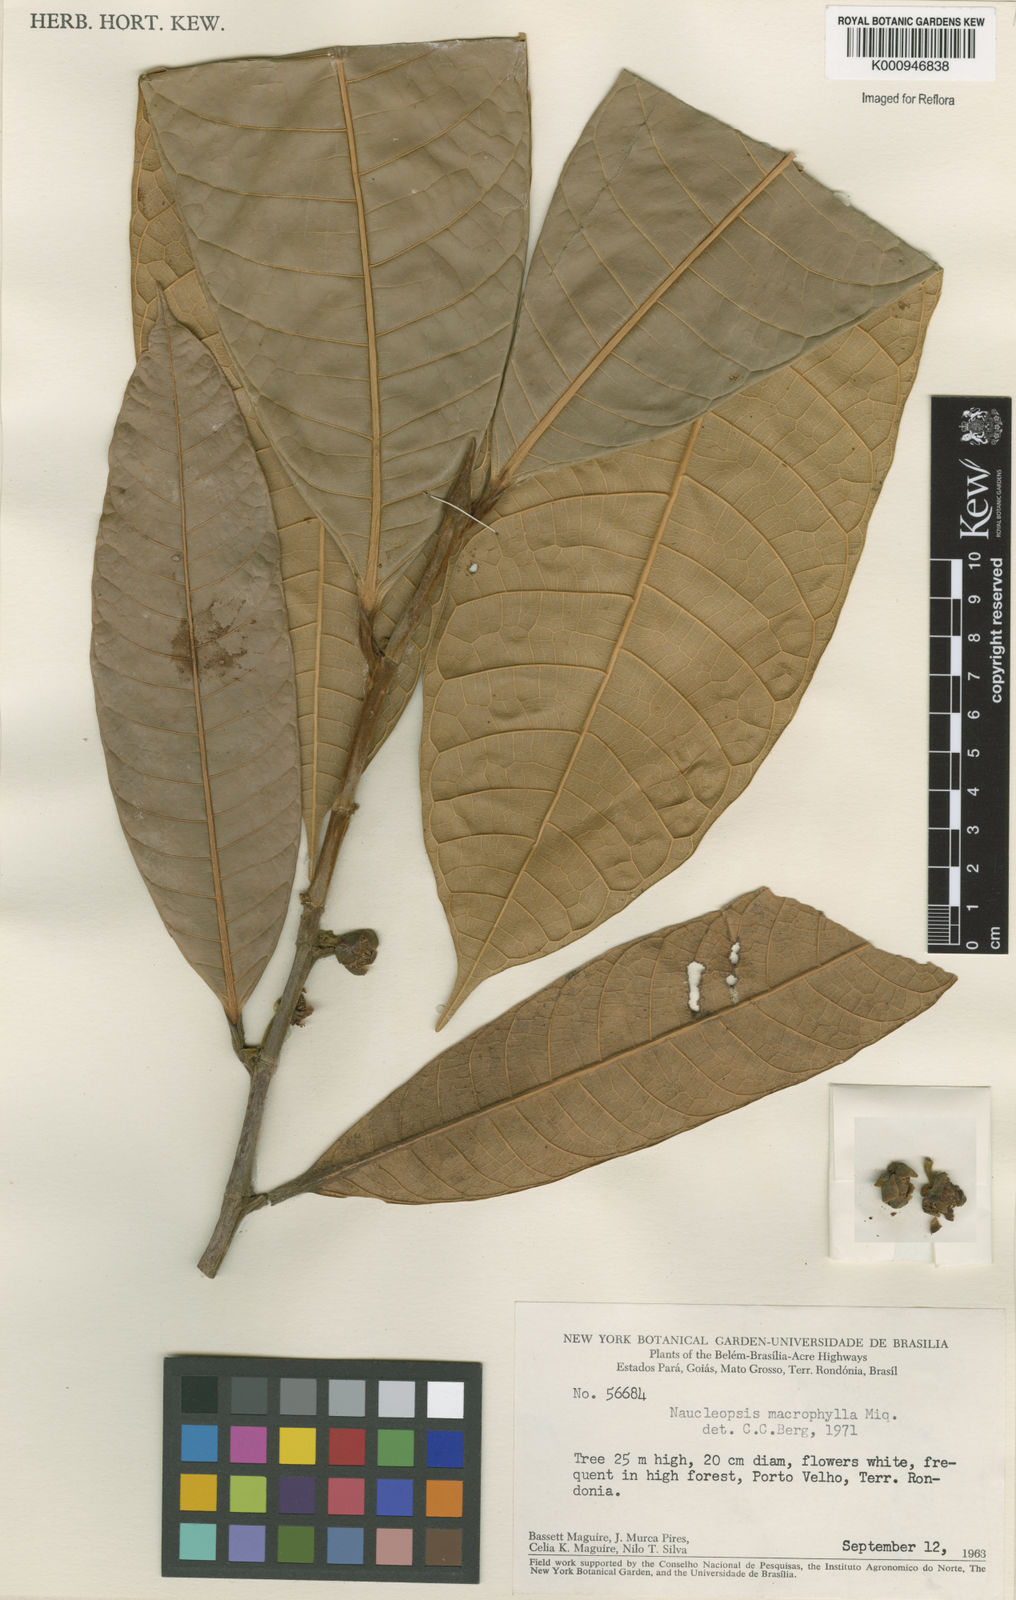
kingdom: Plantae
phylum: Tracheophyta
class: Magnoliopsida
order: Rosales
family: Moraceae
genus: Naucleopsis
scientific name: Naucleopsis macrophylla
